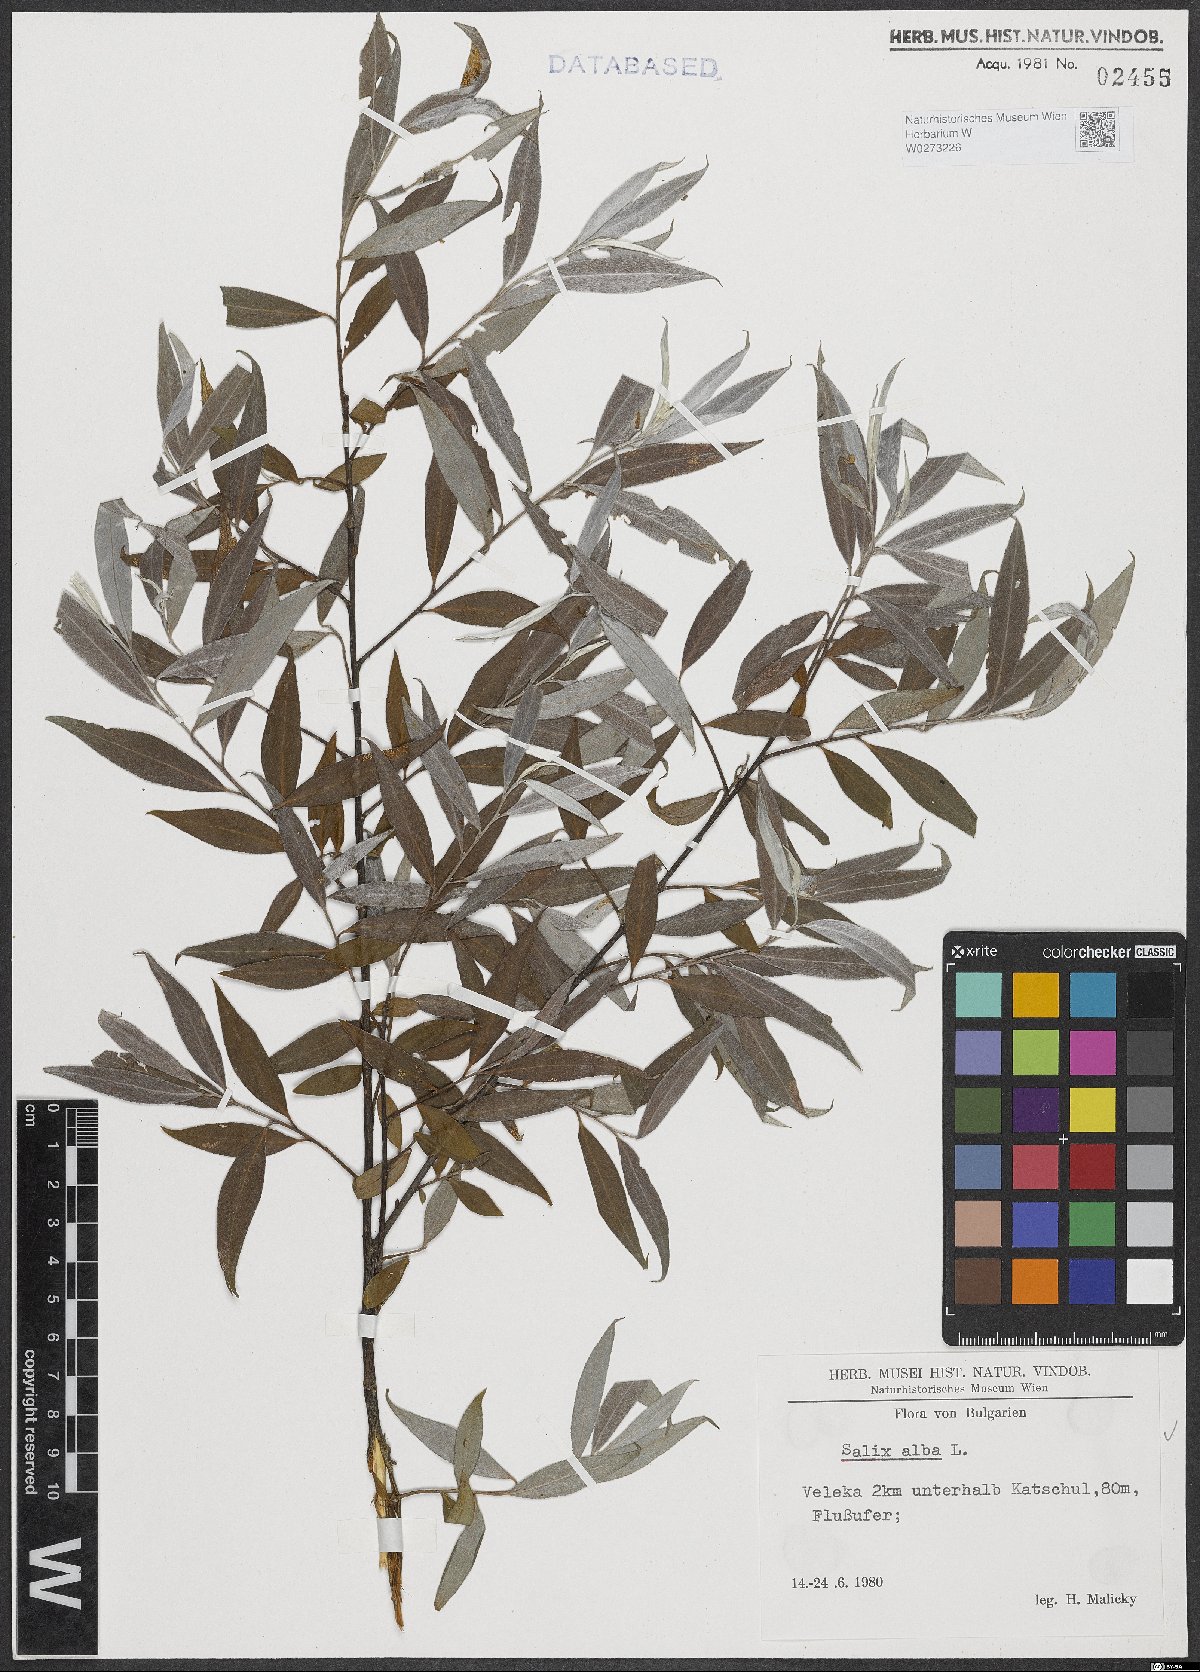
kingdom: Plantae
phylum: Tracheophyta
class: Magnoliopsida
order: Malpighiales
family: Salicaceae
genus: Salix
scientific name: Salix alba
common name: White willow
